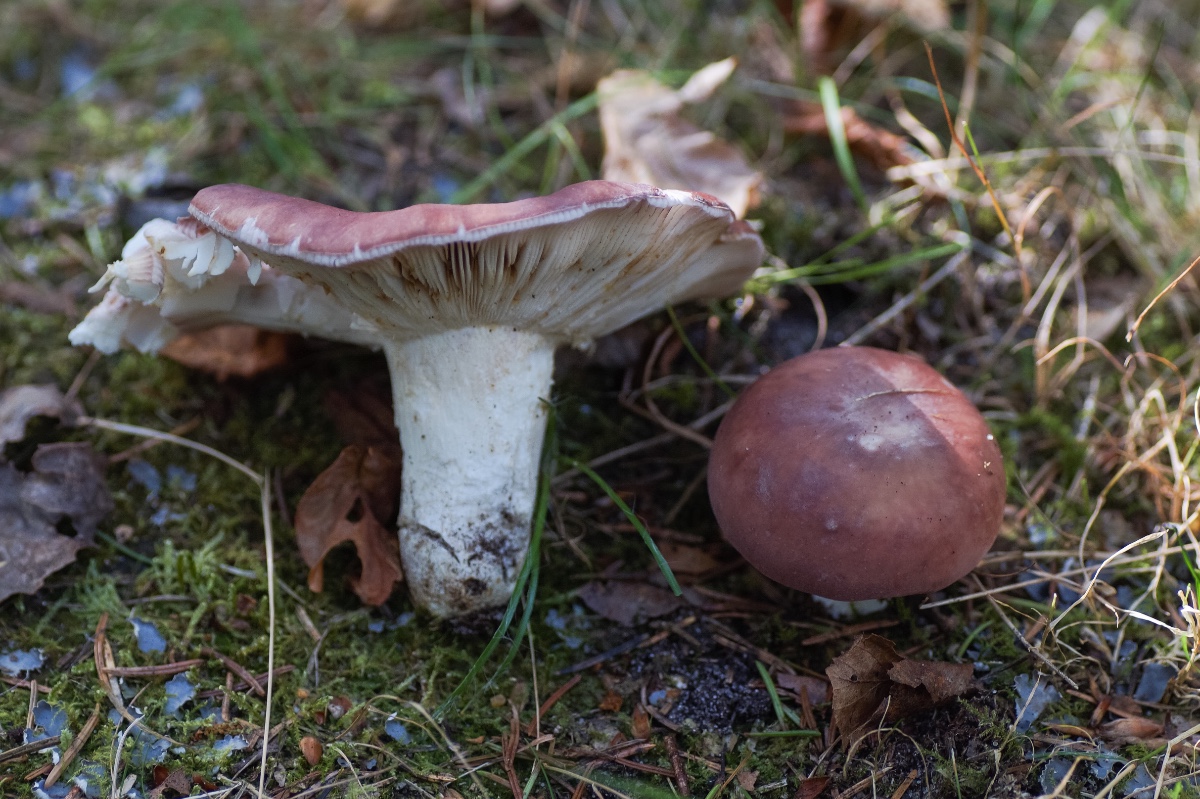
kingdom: Fungi
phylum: Basidiomycota
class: Agaricomycetes
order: Russulales
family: Russulaceae
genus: Russula
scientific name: Russula vesca
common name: spiselig skørhat
